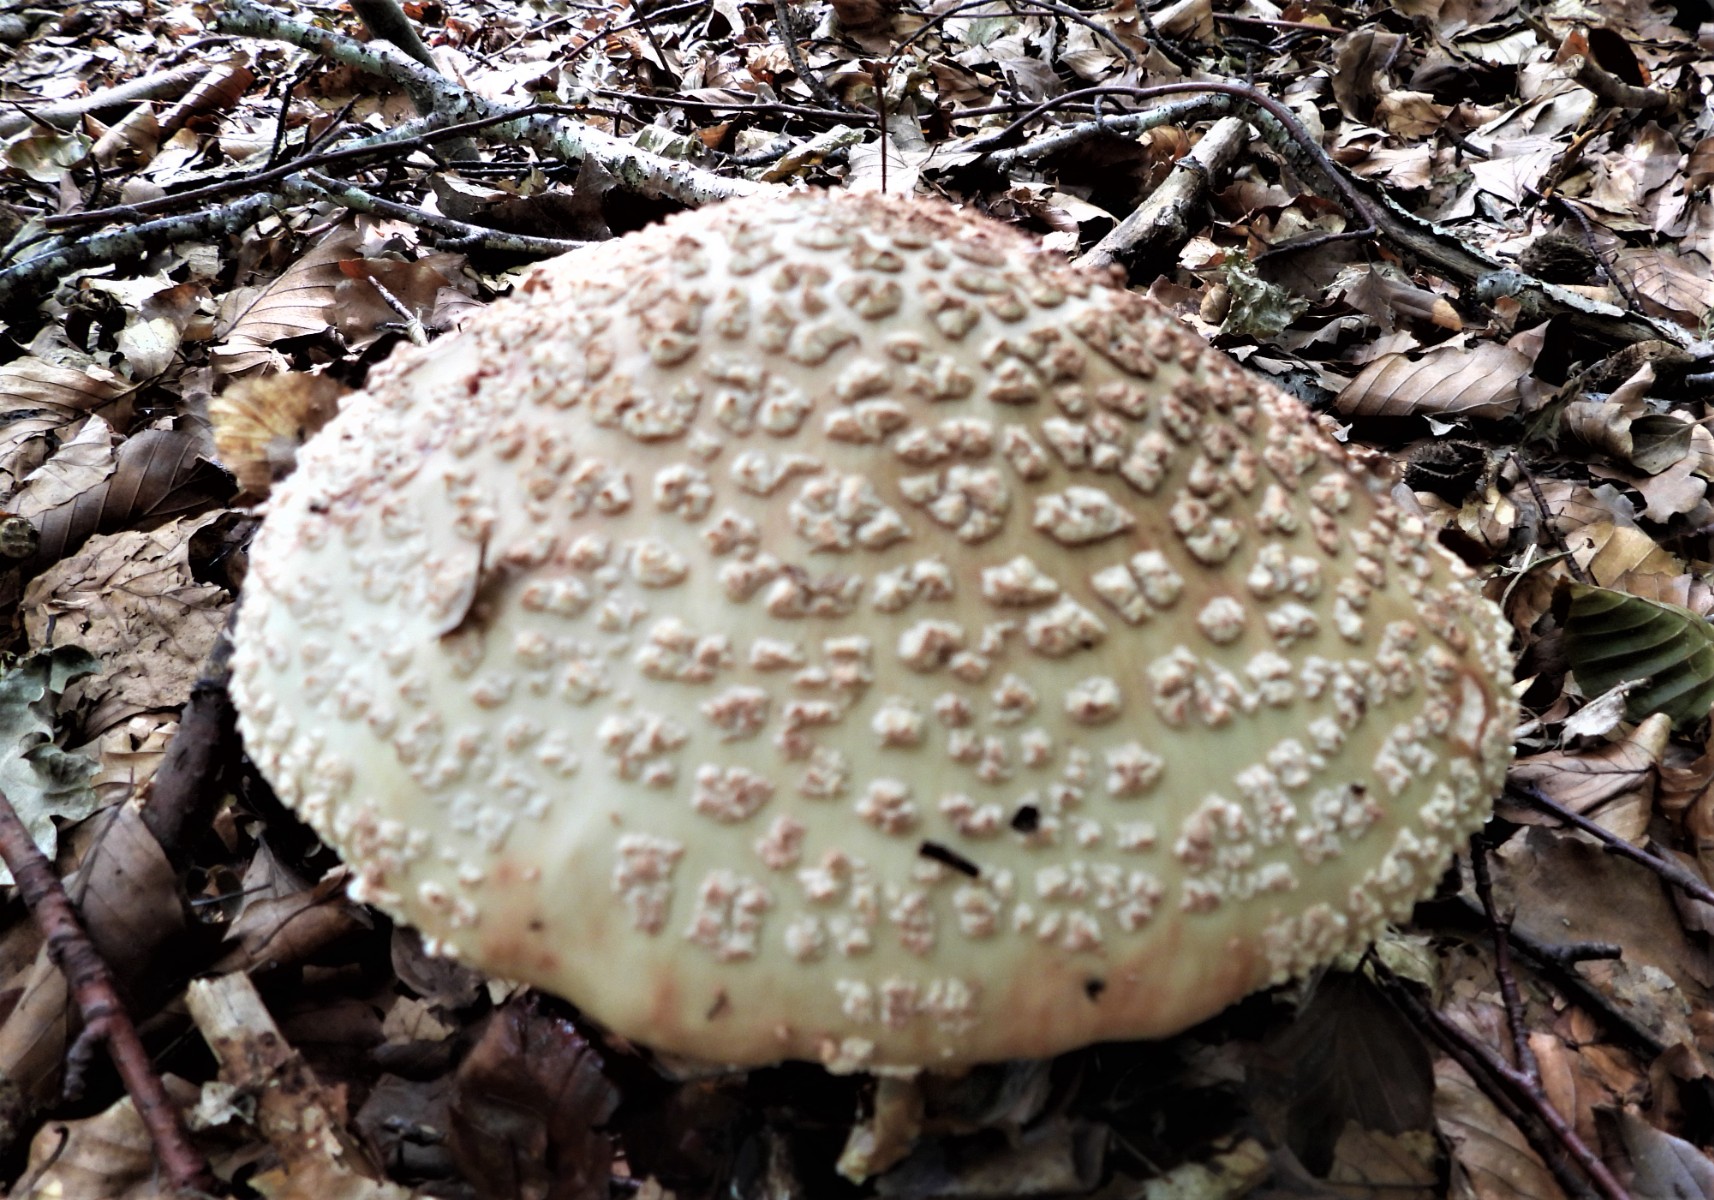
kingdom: Fungi
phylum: Basidiomycota
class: Agaricomycetes
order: Agaricales
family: Amanitaceae
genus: Amanita
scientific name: Amanita rubescens
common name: rødmende fluesvamp
